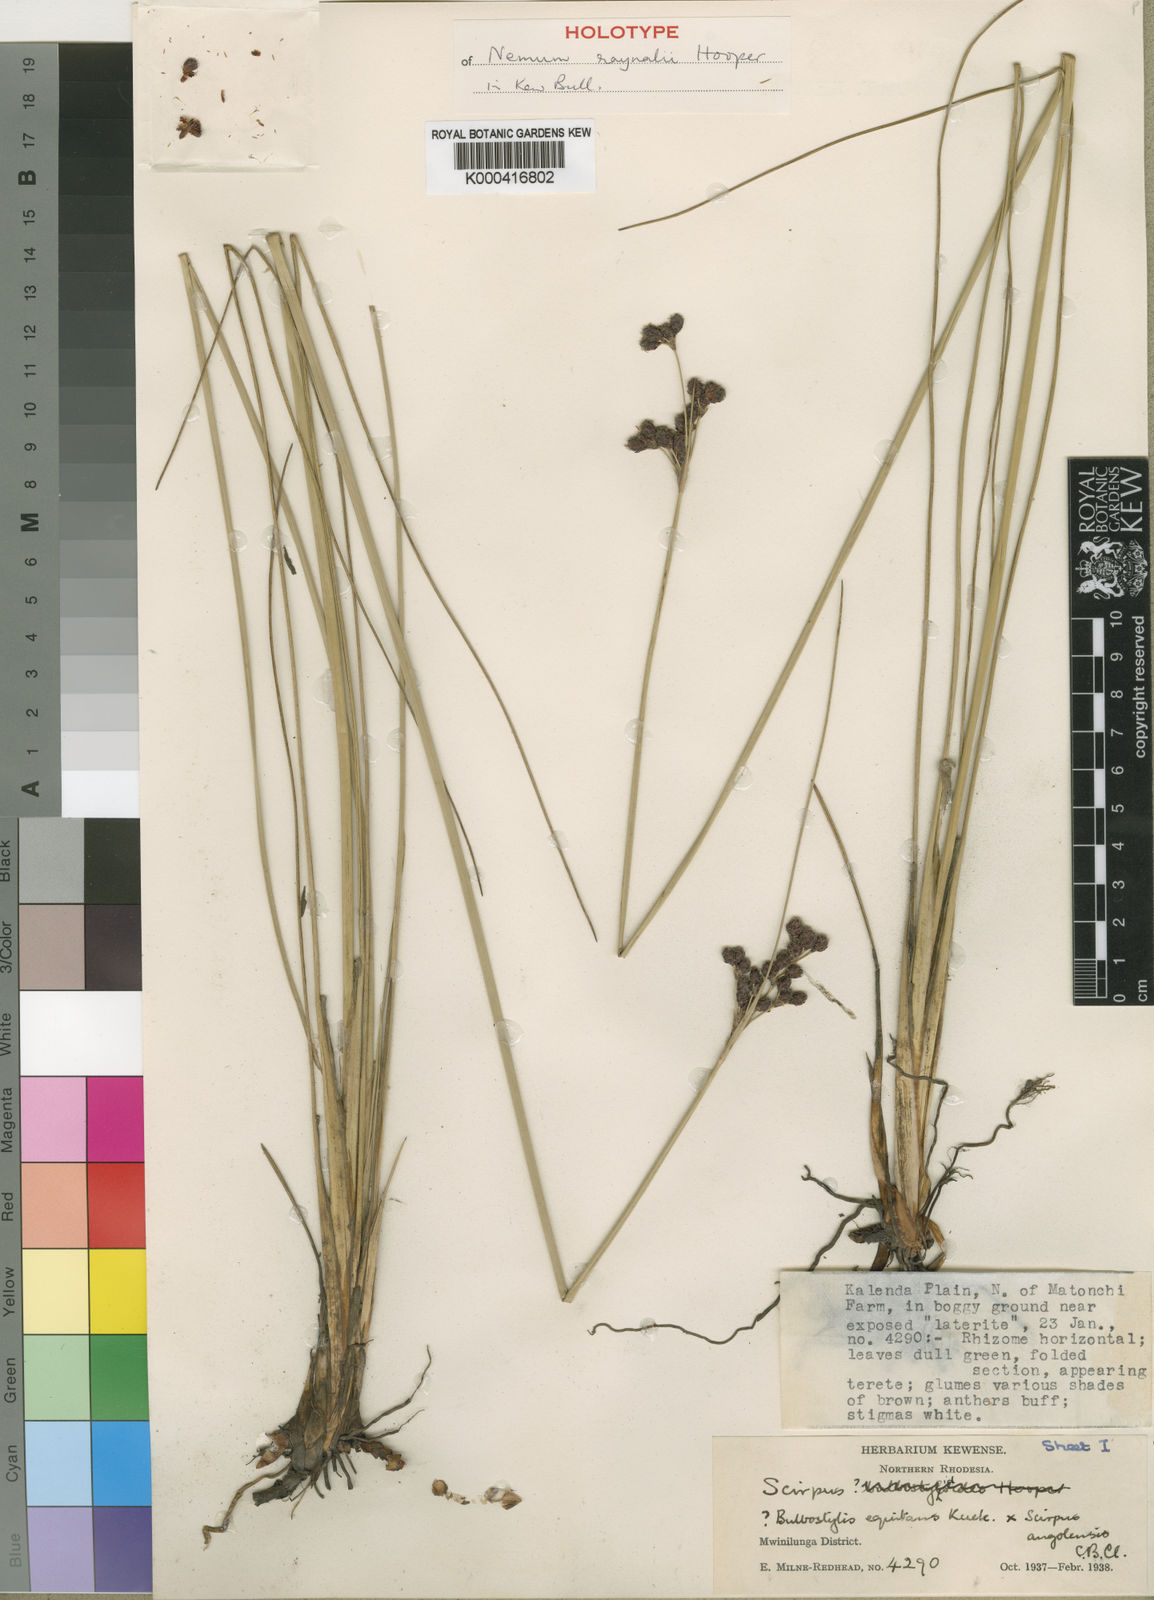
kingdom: Plantae
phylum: Tracheophyta
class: Liliopsida
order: Poales
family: Cyperaceae
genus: Bulbostylis
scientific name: Bulbostylis raynalii
